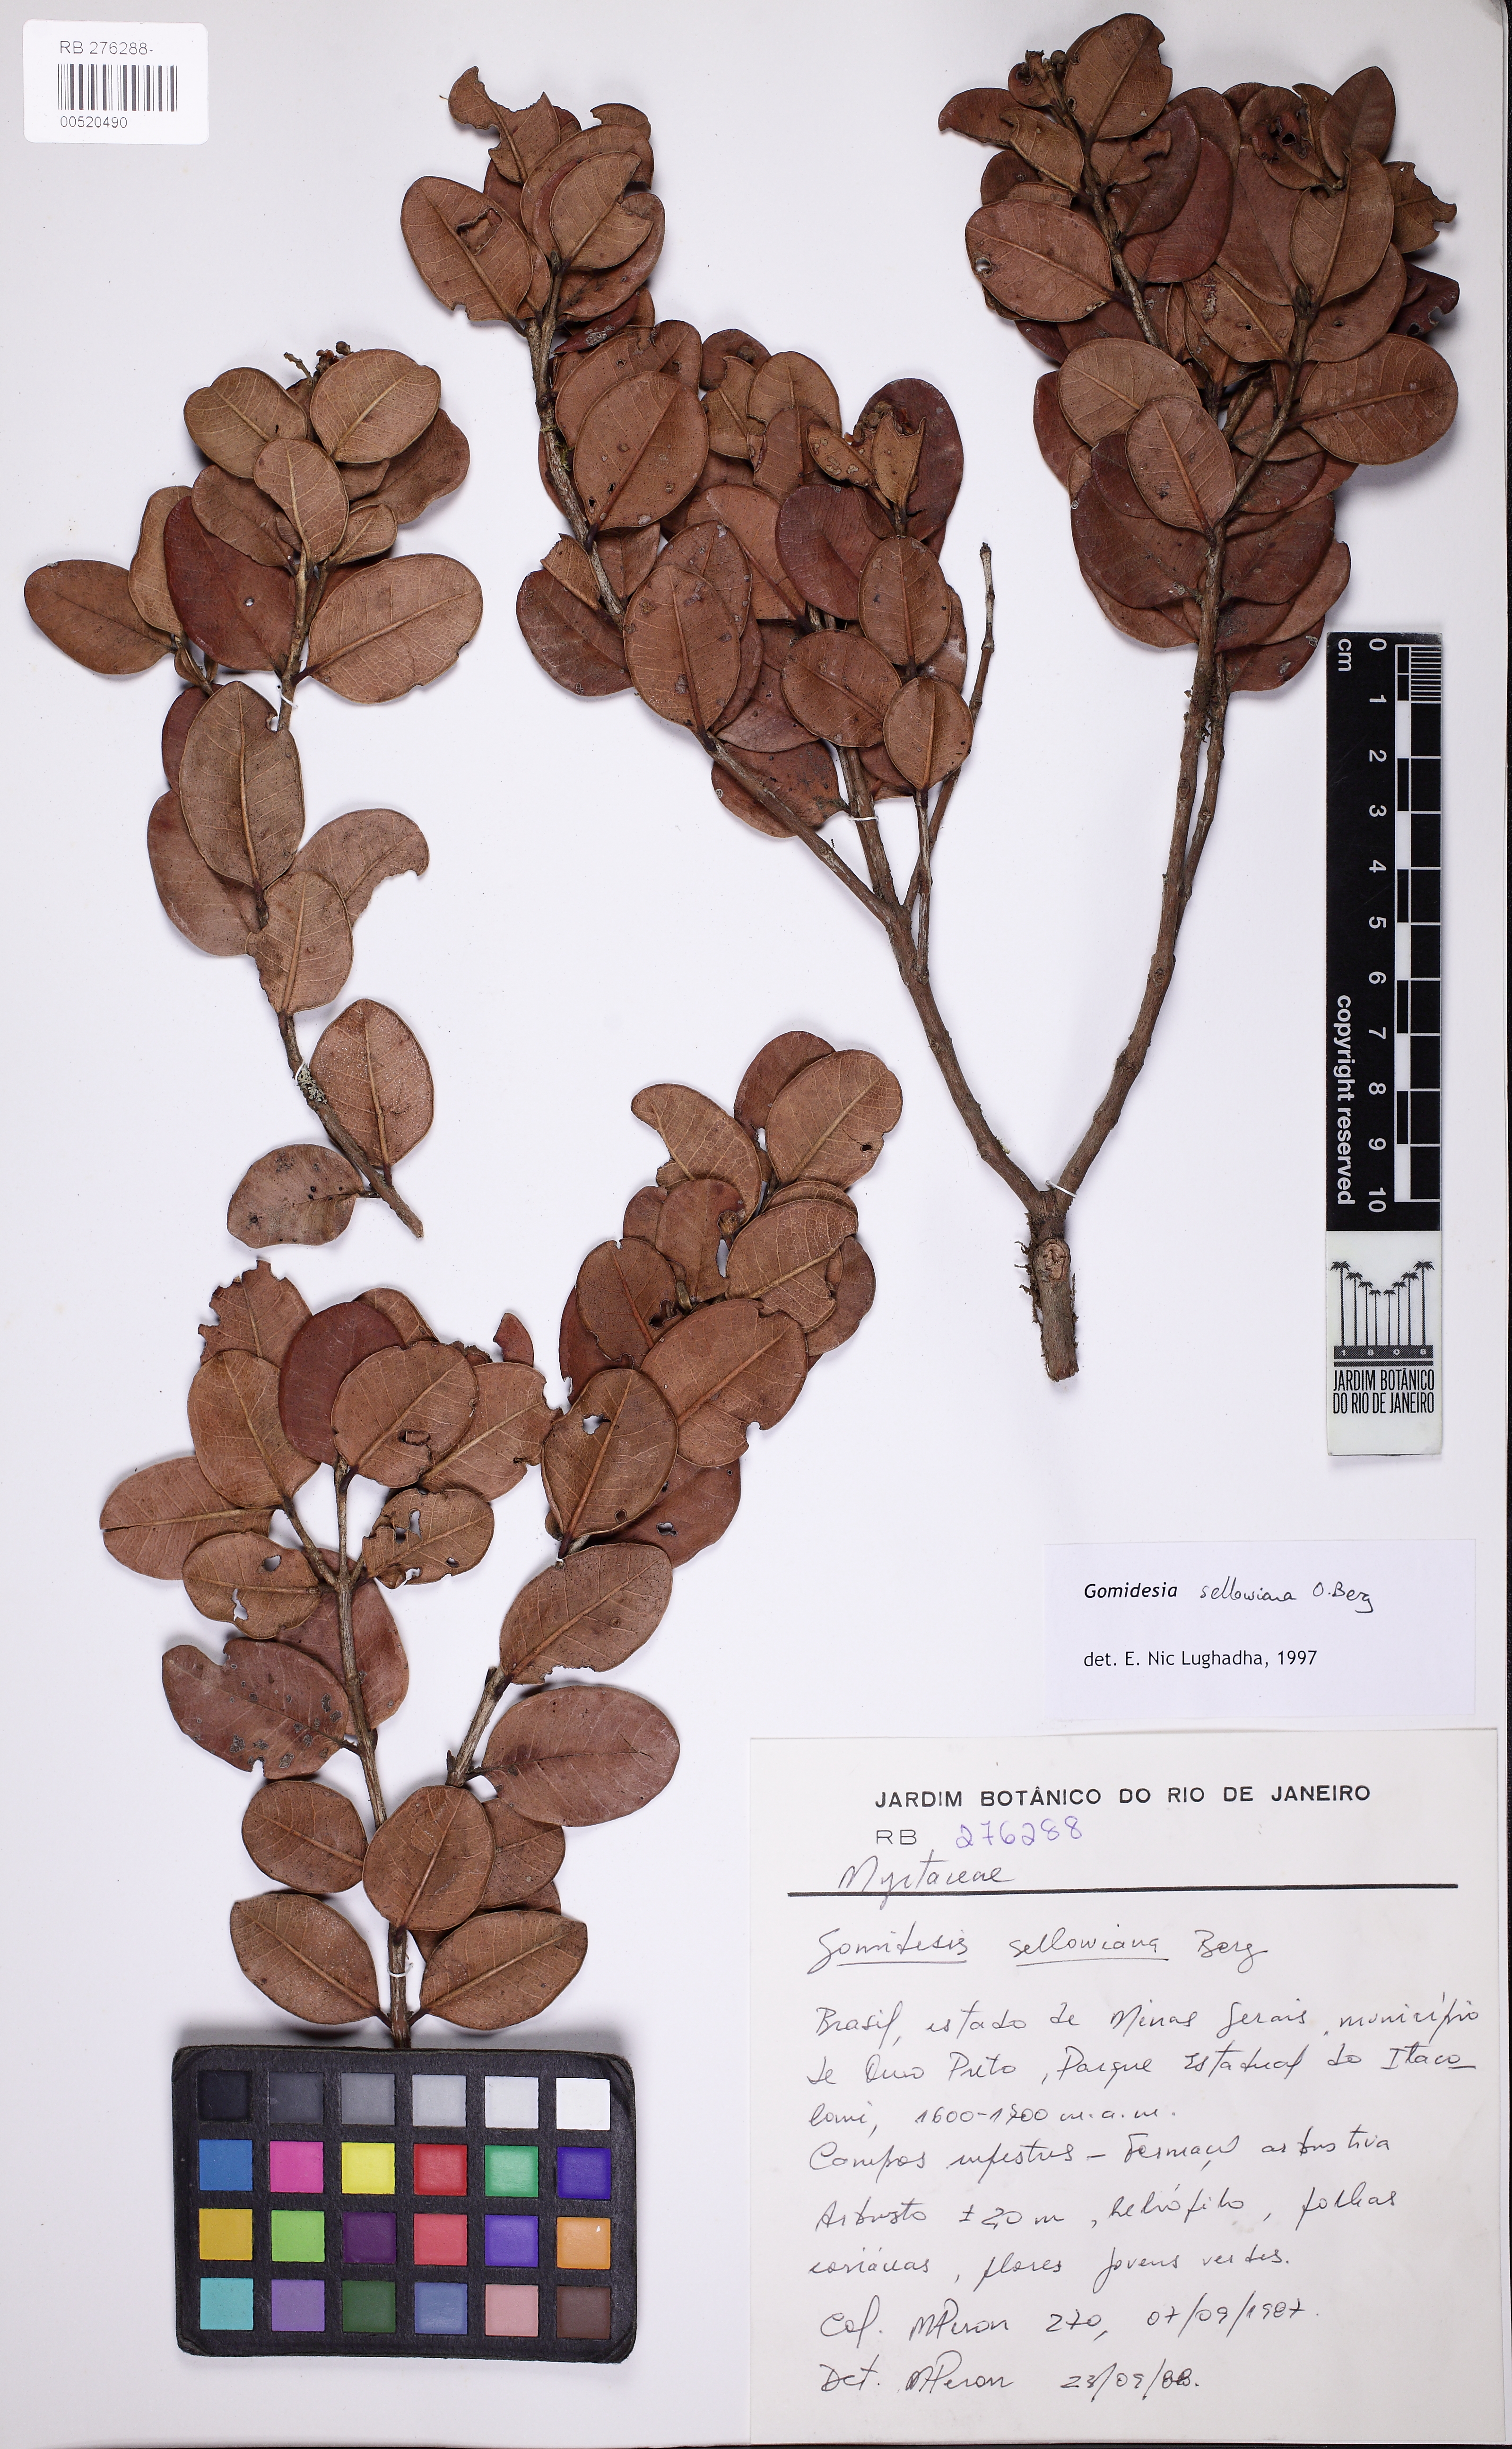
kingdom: Plantae
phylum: Tracheophyta
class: Magnoliopsida
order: Myrtales
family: Myrtaceae
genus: Myrcia
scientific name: Myrcia hartwegiana
